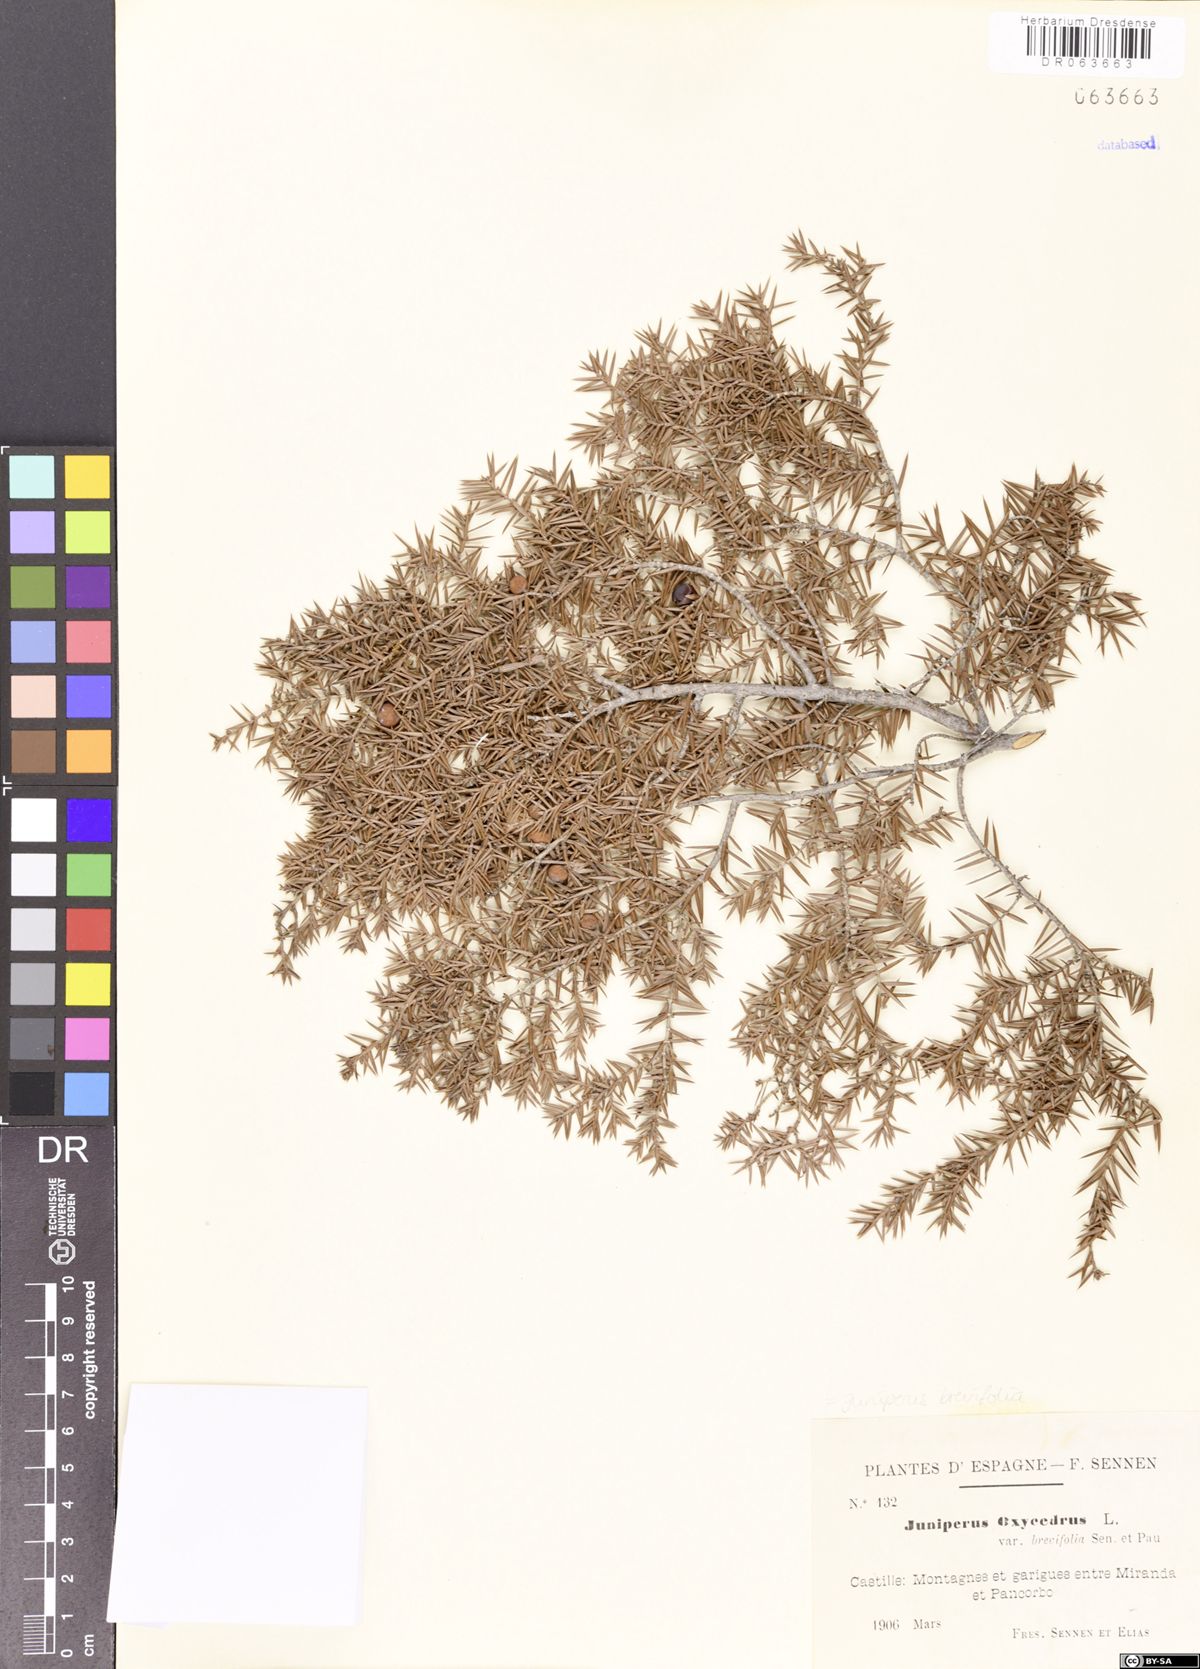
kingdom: Plantae
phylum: Tracheophyta
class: Pinopsida
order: Pinales
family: Cupressaceae
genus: Juniperus
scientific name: Juniperus brevifolia
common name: Azores juniper
